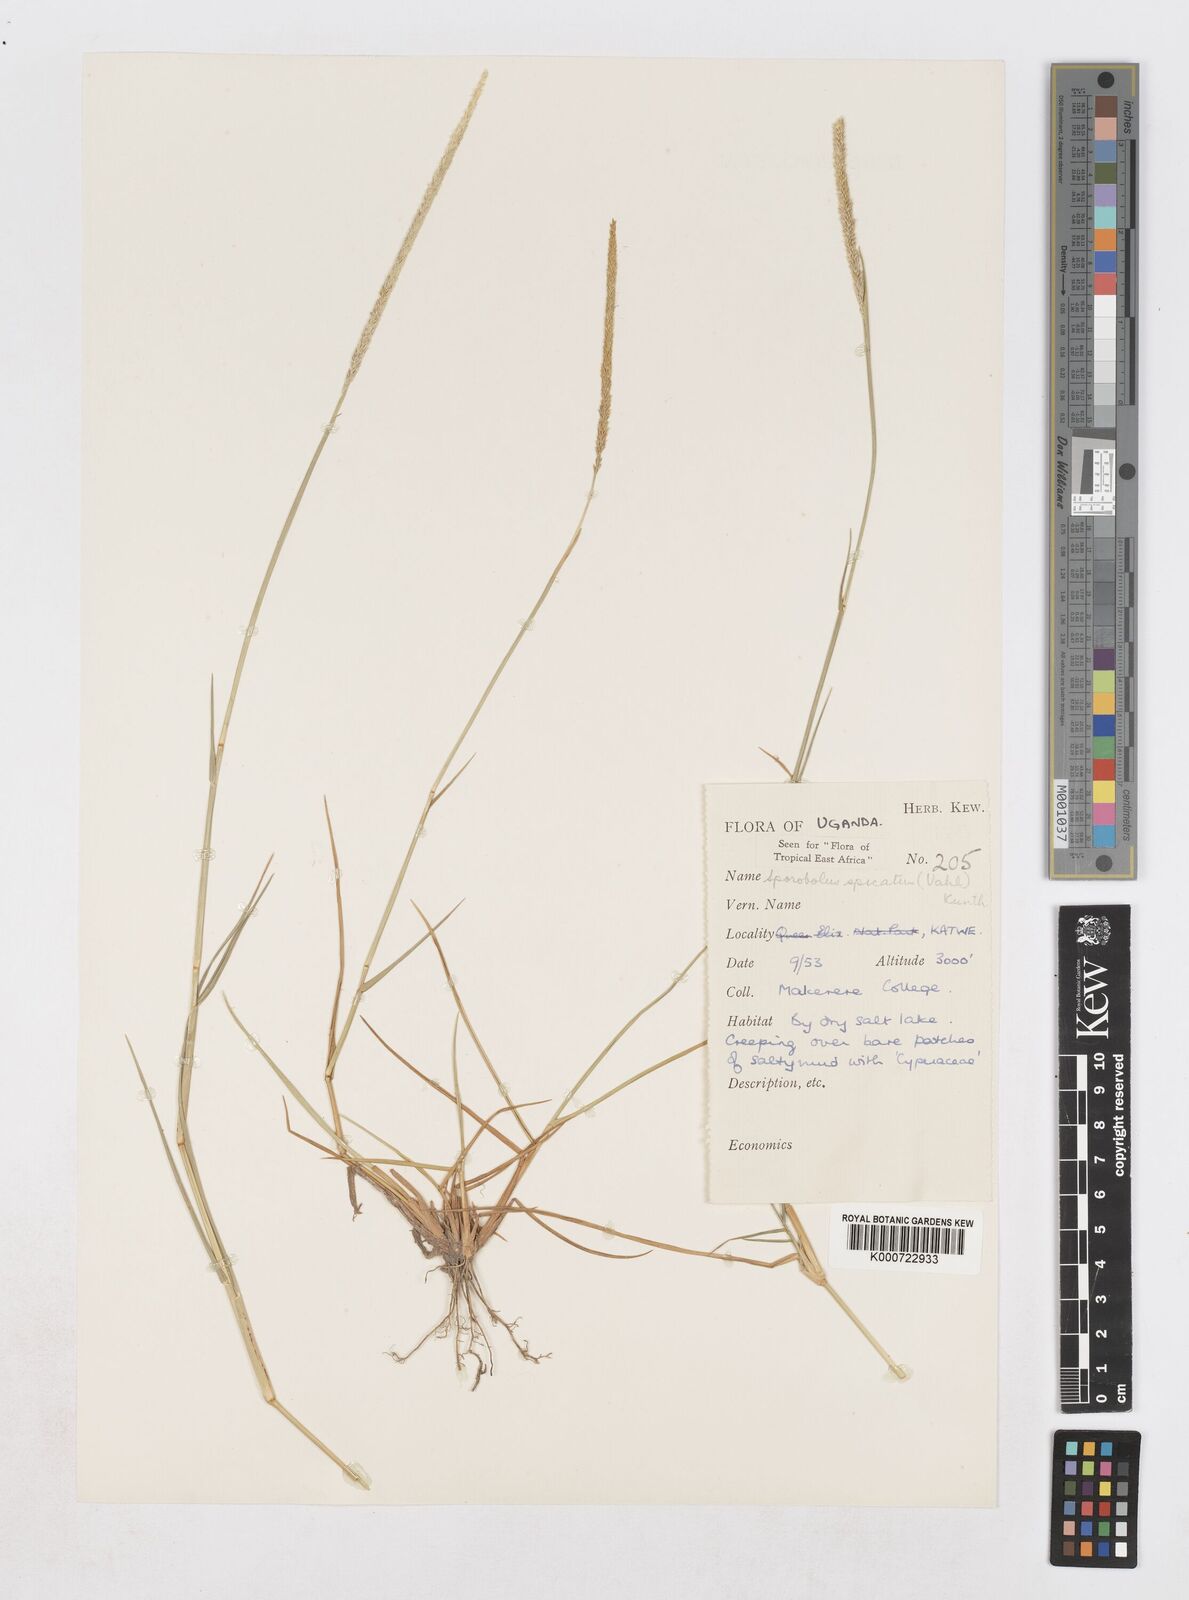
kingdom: Plantae
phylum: Tracheophyta
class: Liliopsida
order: Poales
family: Poaceae
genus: Sporobolus
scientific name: Sporobolus spicatus
